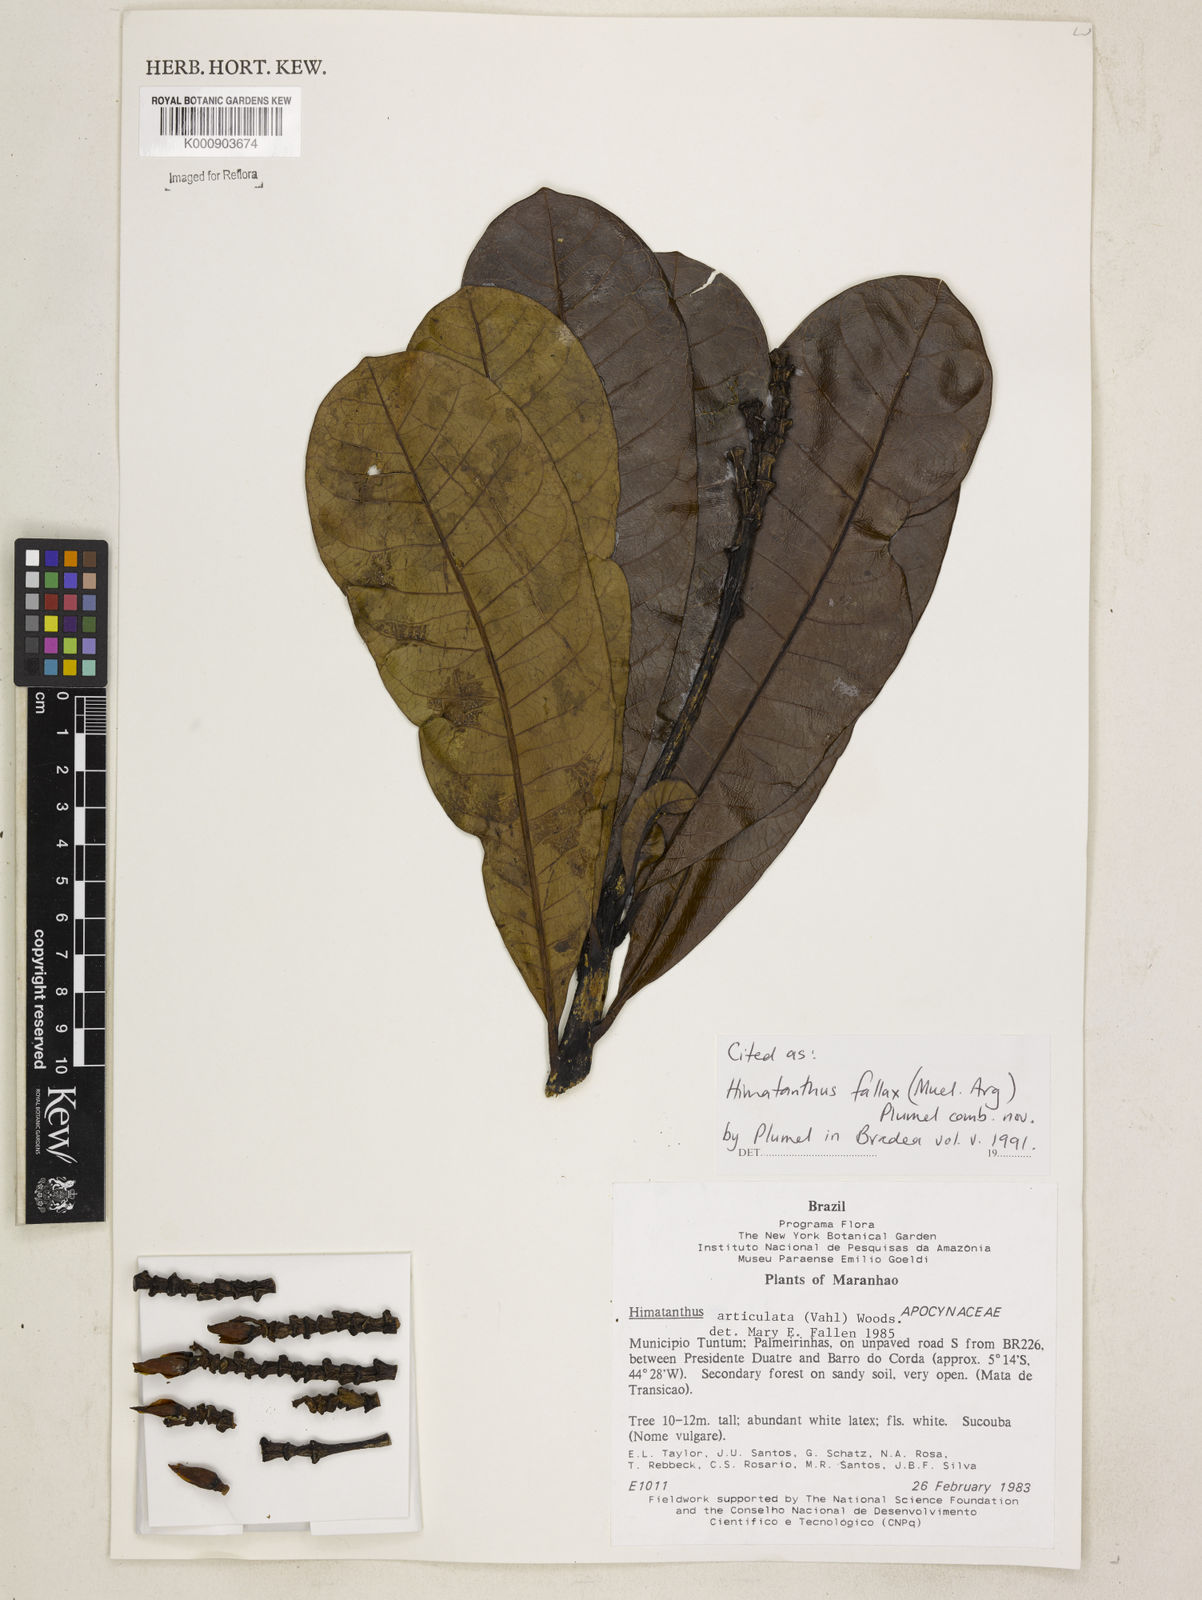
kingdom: Plantae
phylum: Tracheophyta
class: Magnoliopsida
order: Gentianales
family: Apocynaceae
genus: Himatanthus
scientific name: Himatanthus
